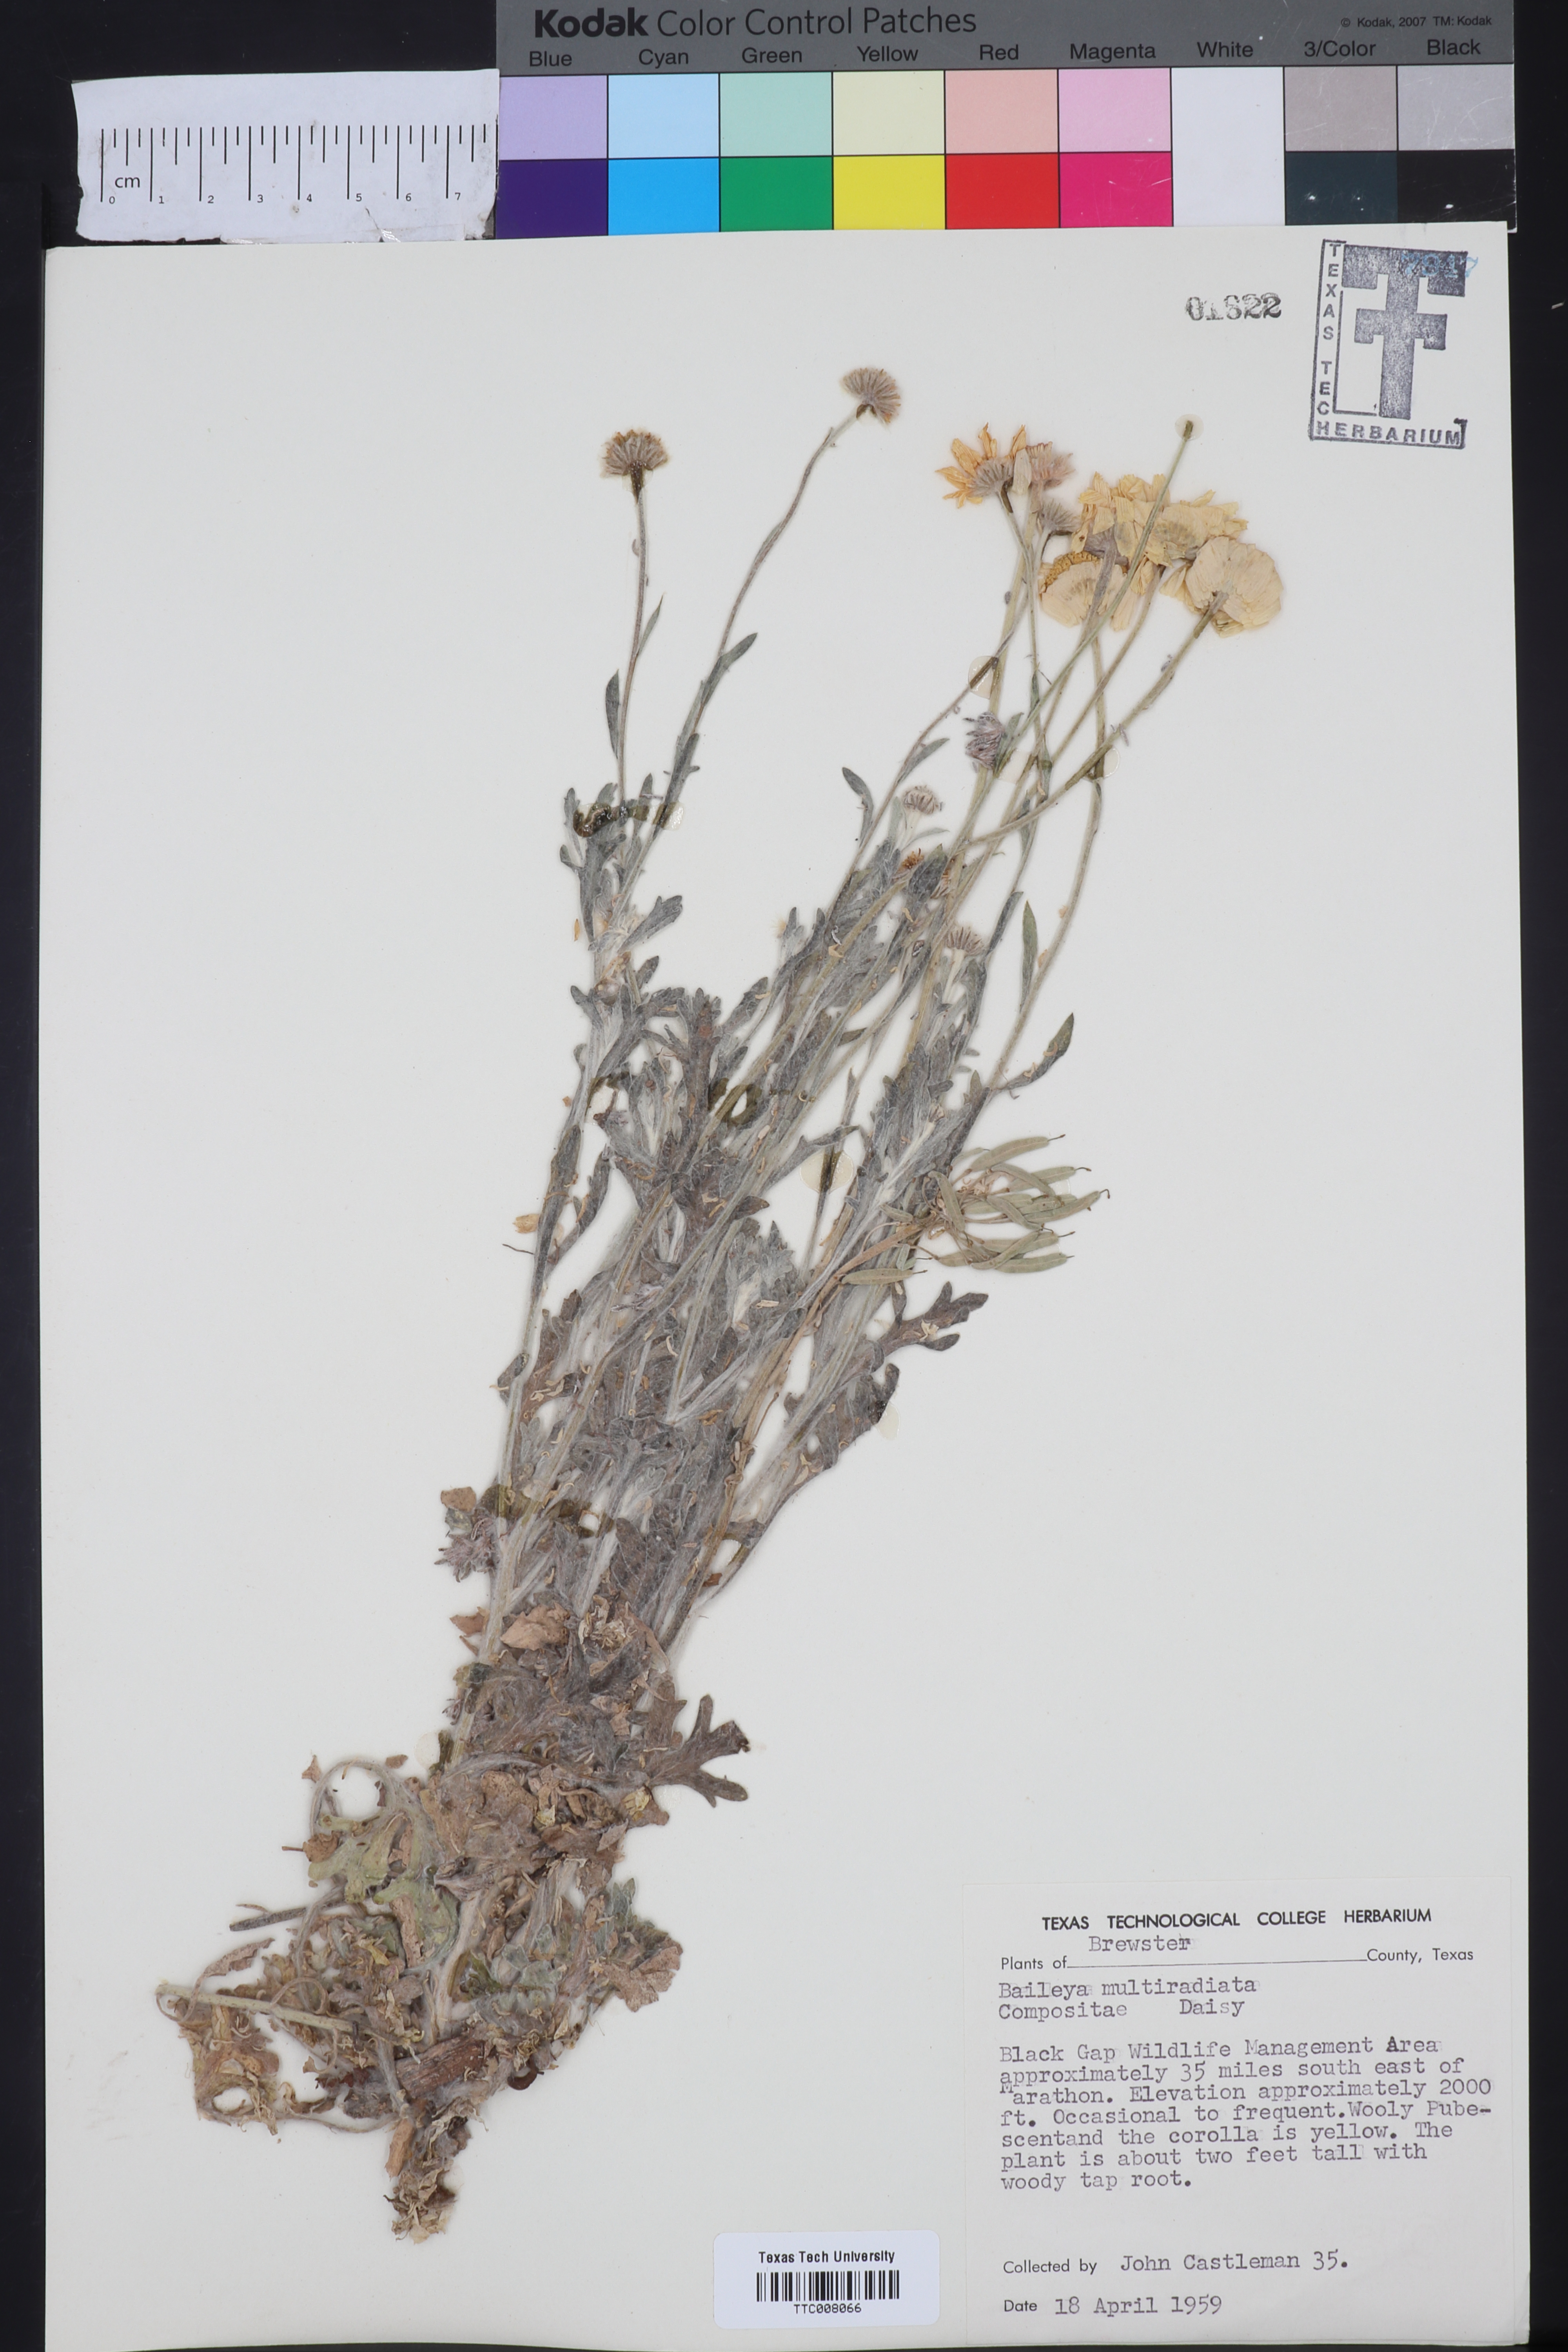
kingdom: Plantae
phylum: Tracheophyta
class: Magnoliopsida
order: Asterales
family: Asteraceae
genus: Baileya
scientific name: Baileya multiradiata
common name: Desert-marigold
